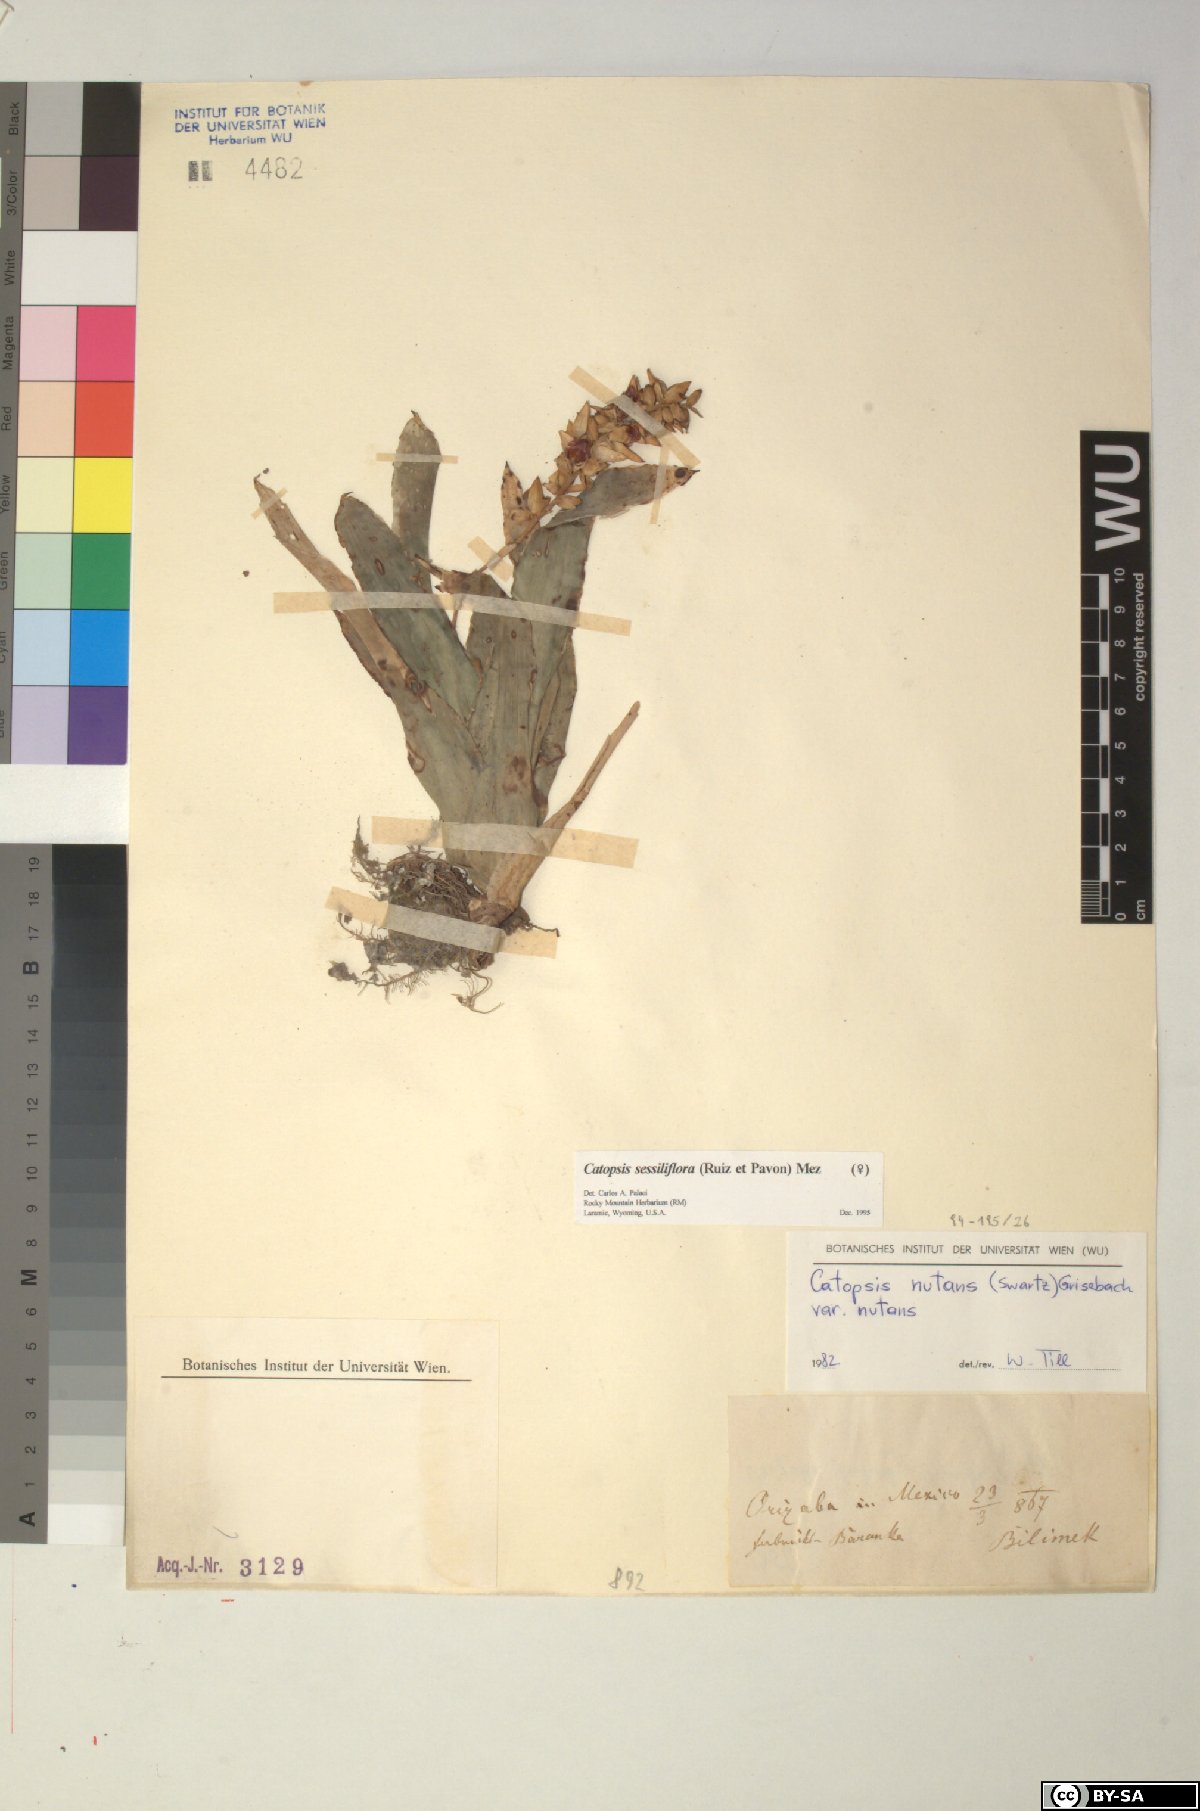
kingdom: Plantae
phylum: Tracheophyta
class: Liliopsida
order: Poales
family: Bromeliaceae
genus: Catopsis
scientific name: Catopsis sessiliflora
